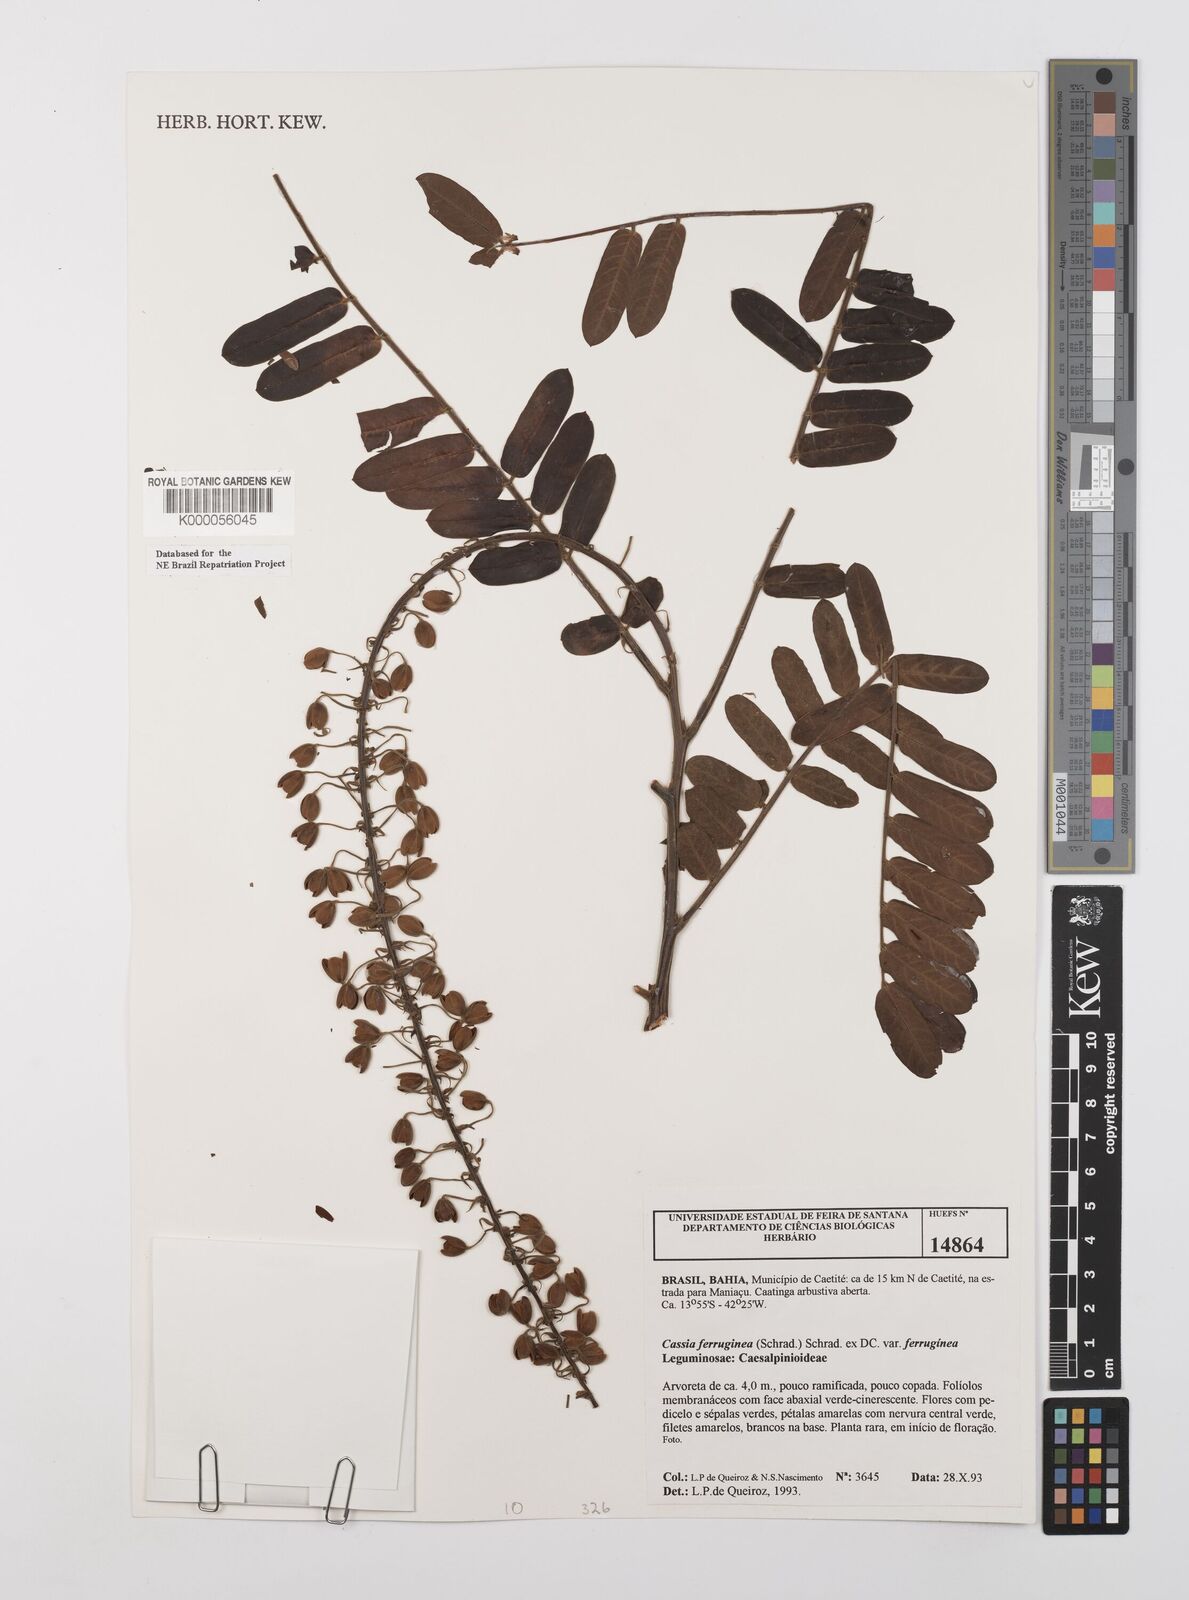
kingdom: Plantae
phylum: Tracheophyta
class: Magnoliopsida
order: Fabales
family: Fabaceae
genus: Cassia
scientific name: Cassia ferruginea
